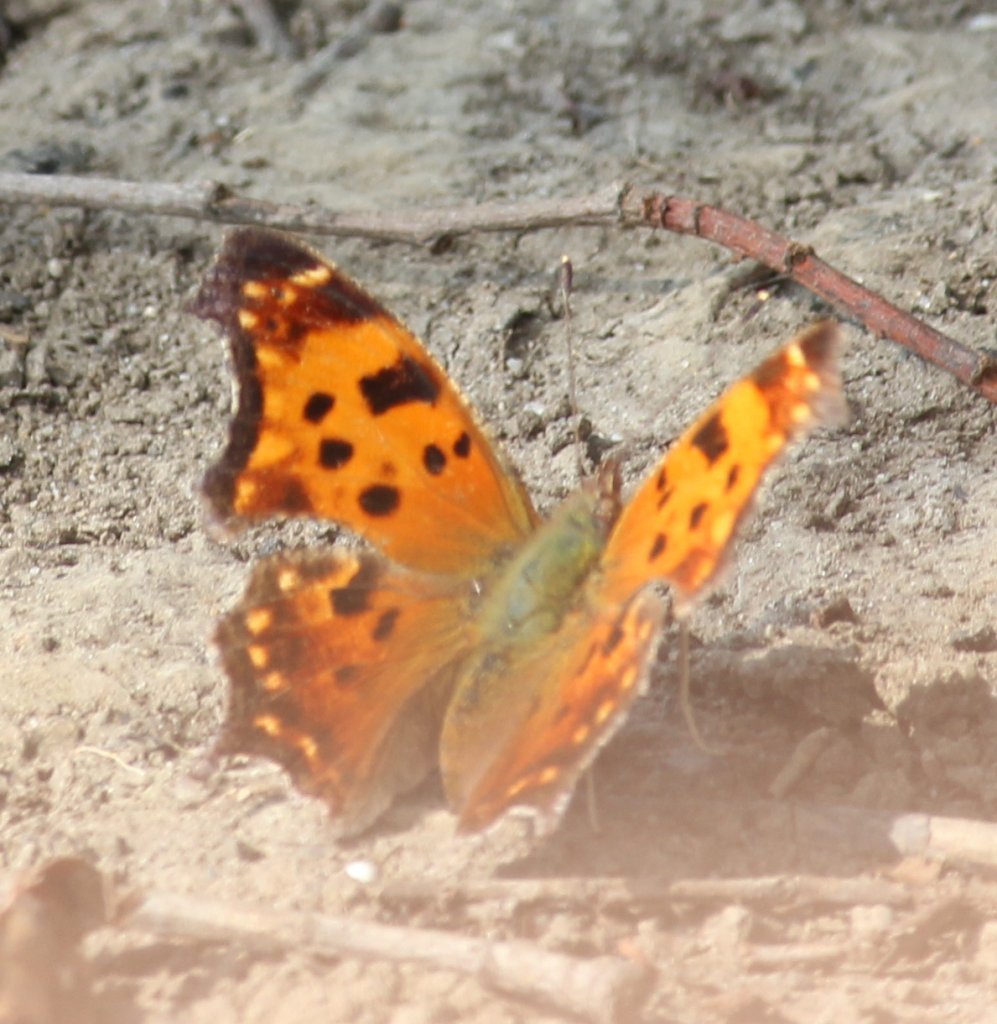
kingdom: Animalia
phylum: Arthropoda
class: Insecta
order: Lepidoptera
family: Nymphalidae
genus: Polygonia
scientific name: Polygonia comma
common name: Eastern Comma
